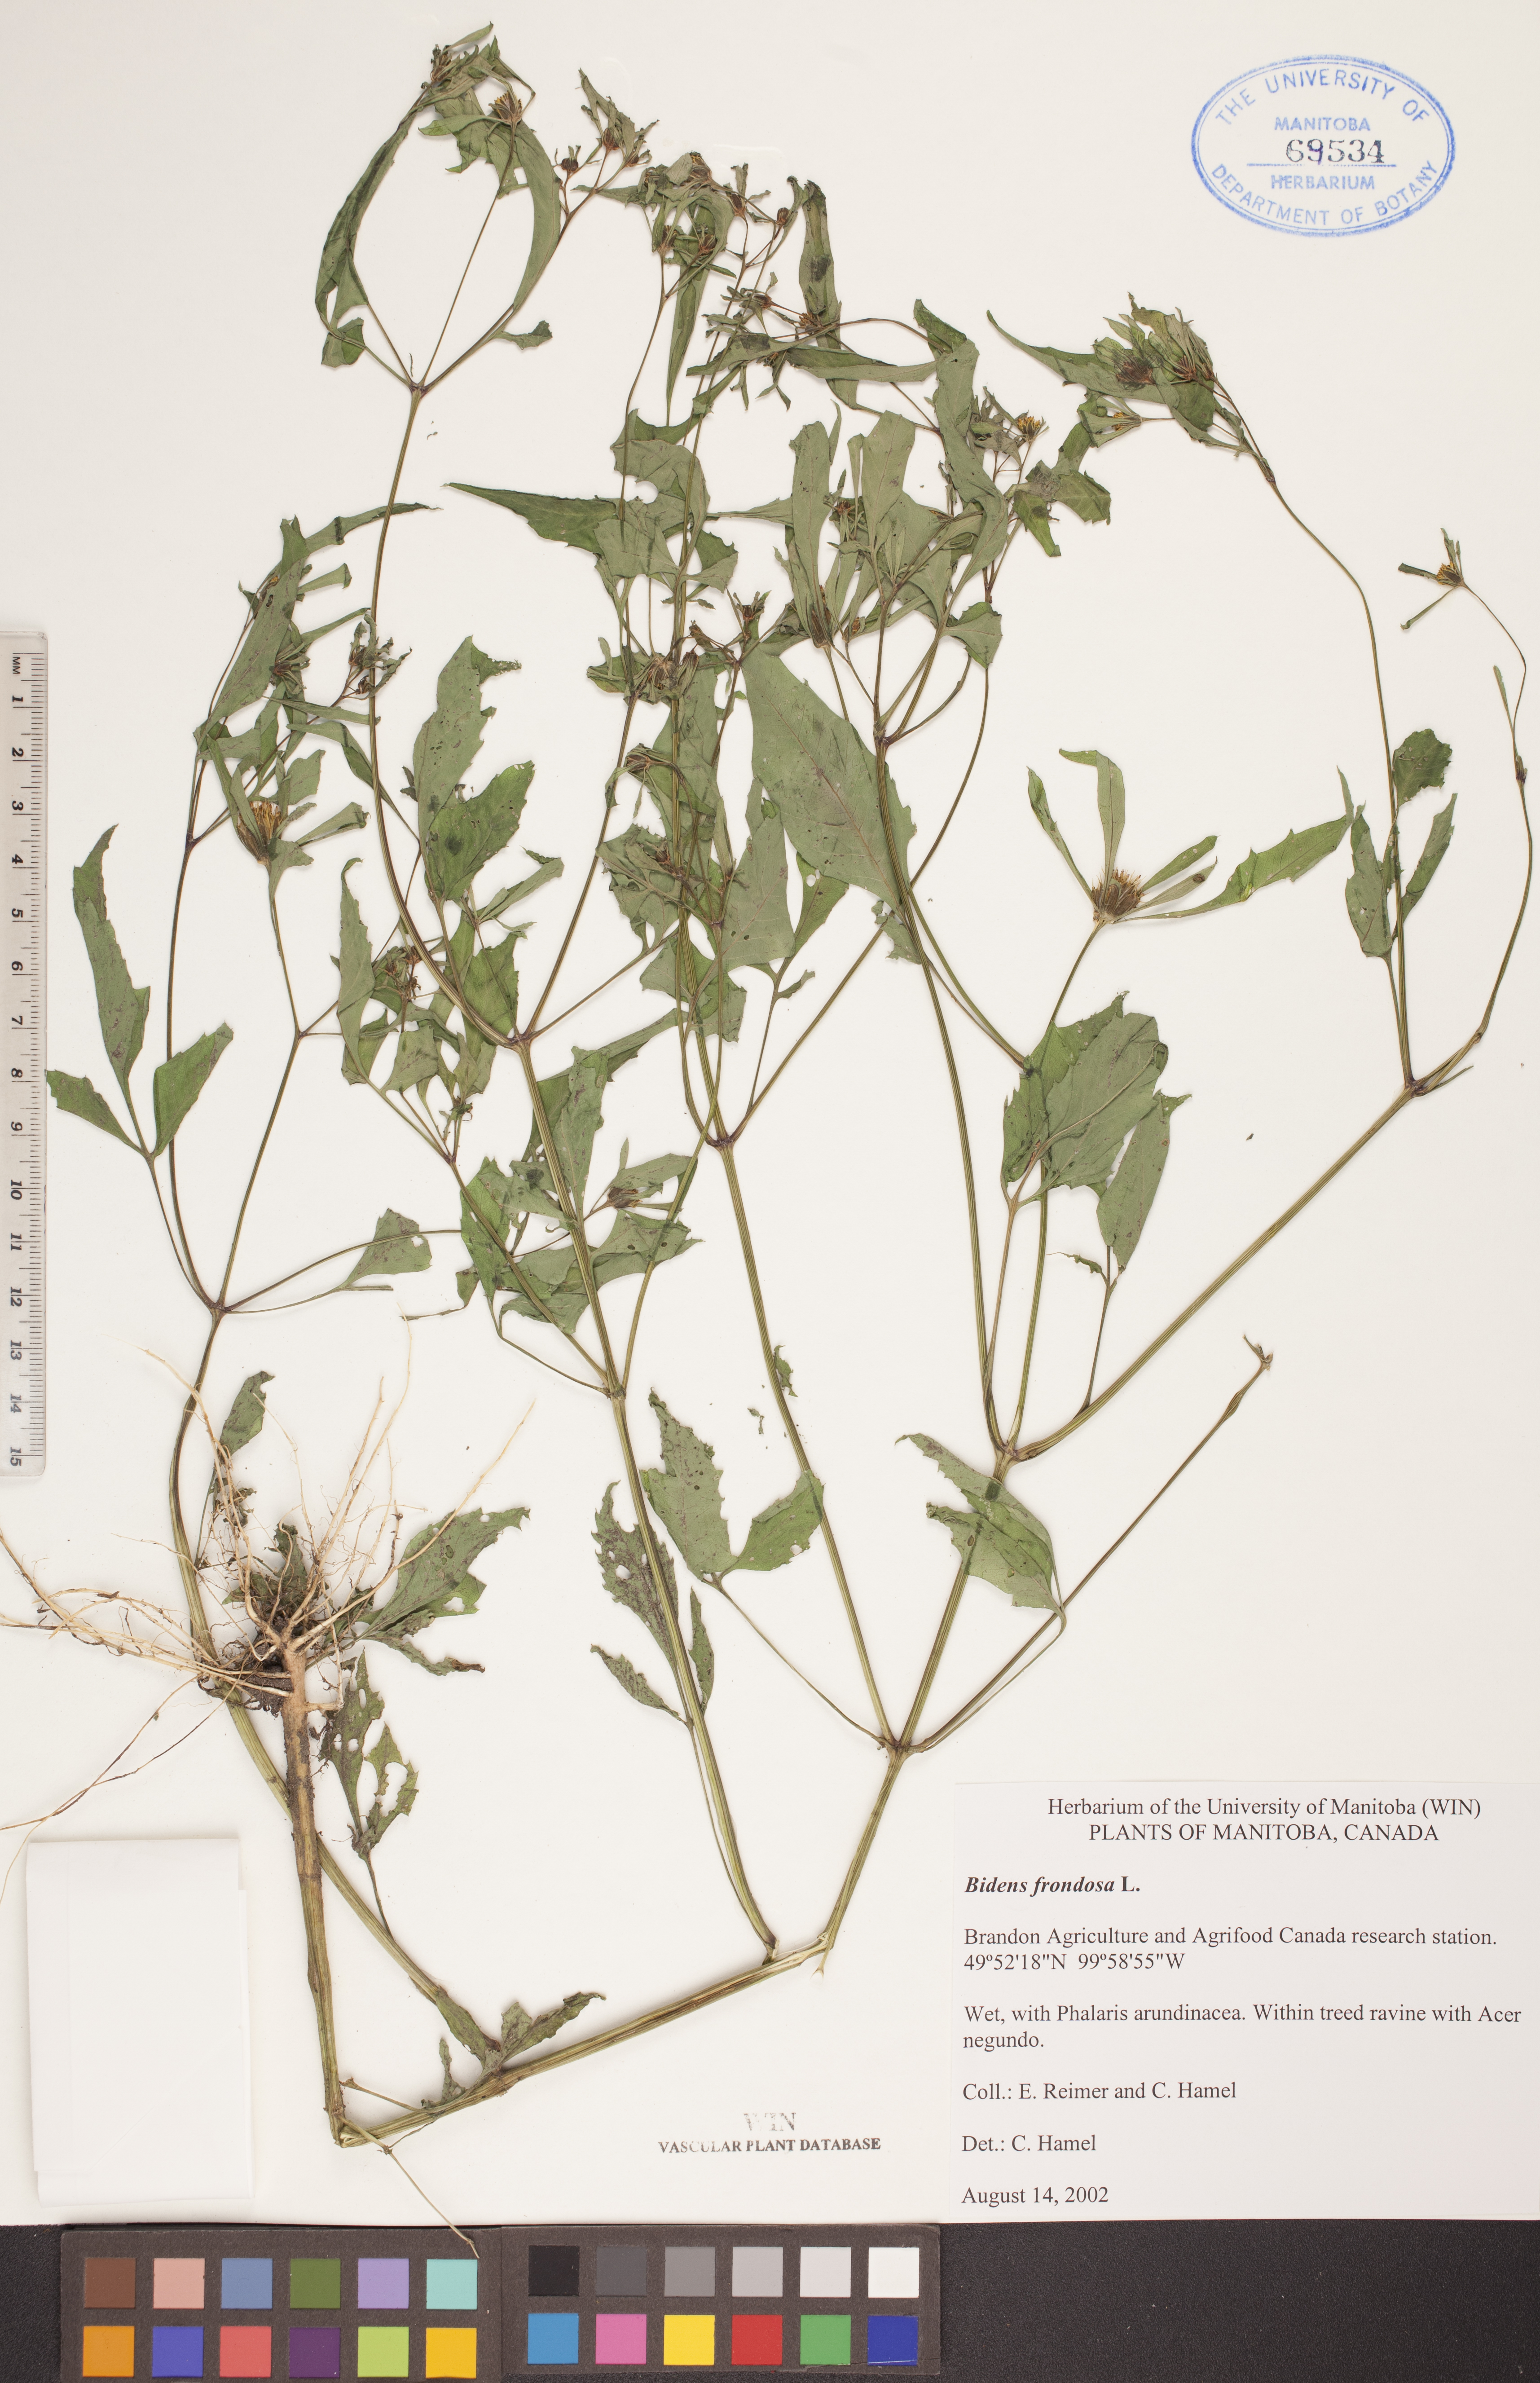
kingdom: Plantae
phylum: Tracheophyta
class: Magnoliopsida
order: Asterales
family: Asteraceae
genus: Bidens
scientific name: Bidens frondosa
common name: Beggarticks
